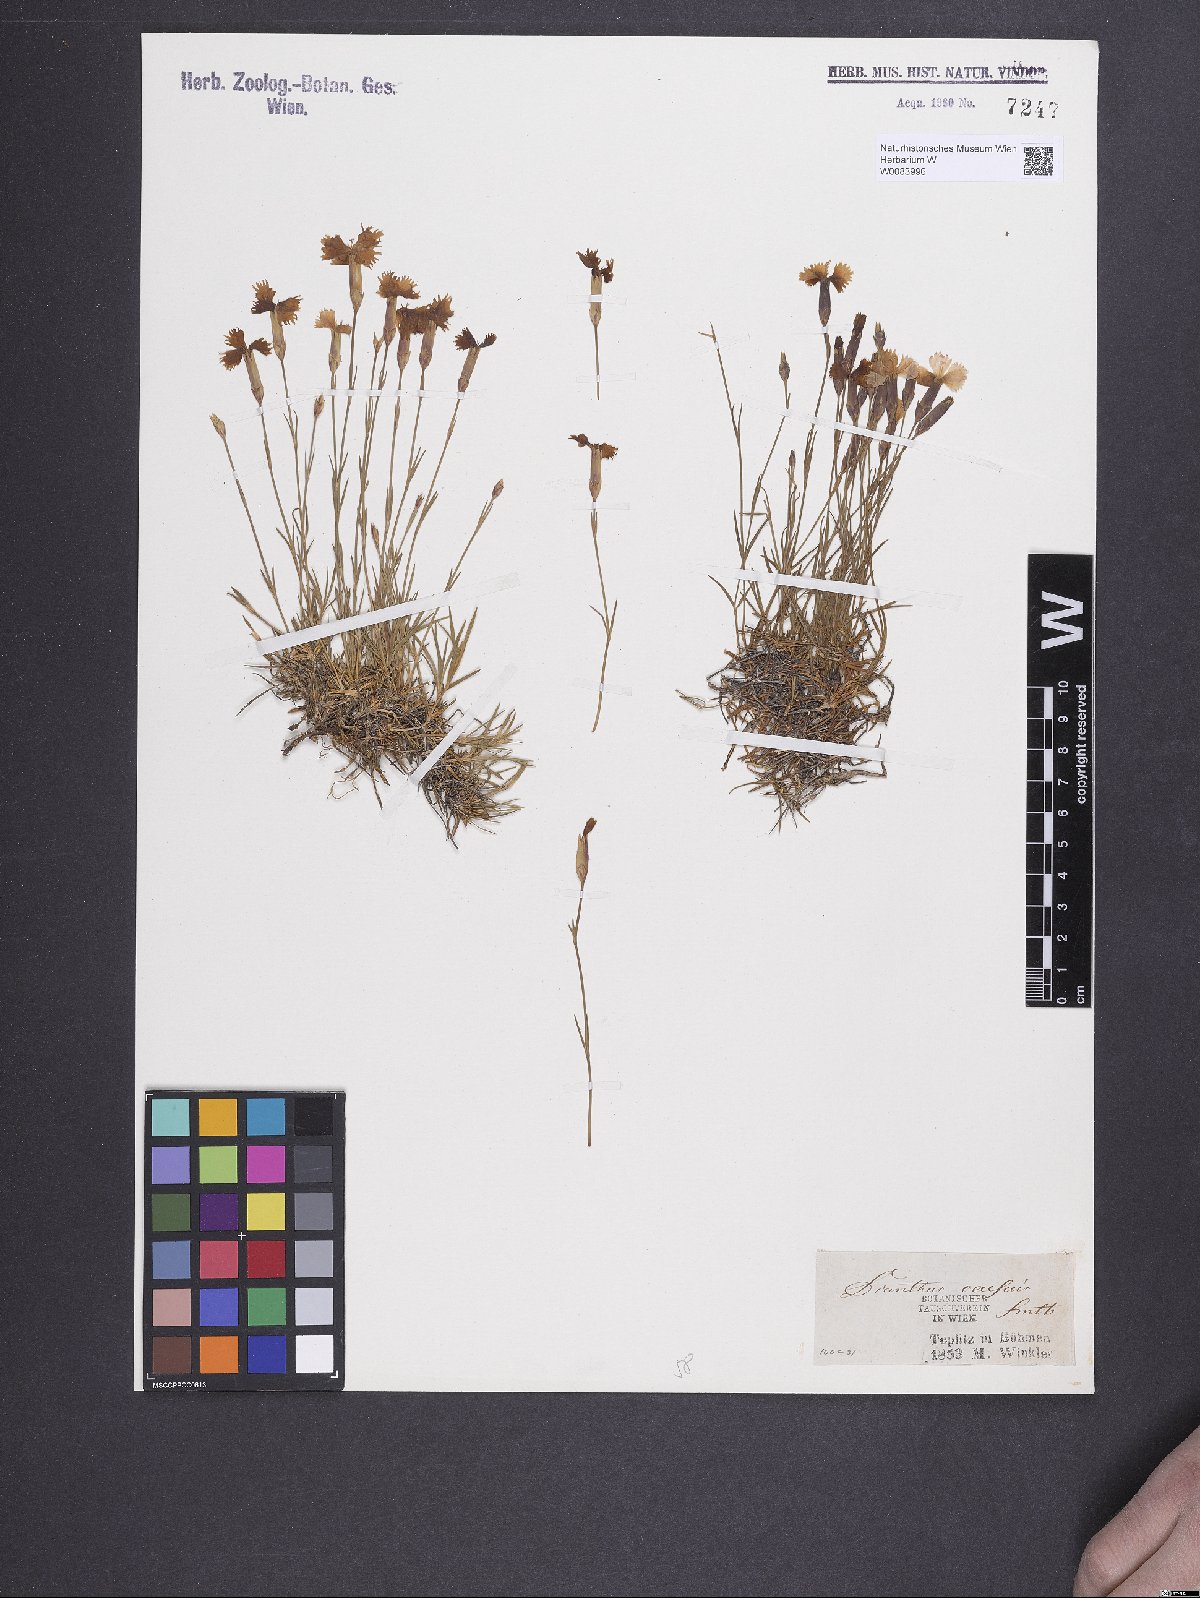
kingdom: Plantae
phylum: Tracheophyta
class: Magnoliopsida
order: Caryophyllales
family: Caryophyllaceae
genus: Dianthus
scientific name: Dianthus gratianopolitanus
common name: Cheddar pink
